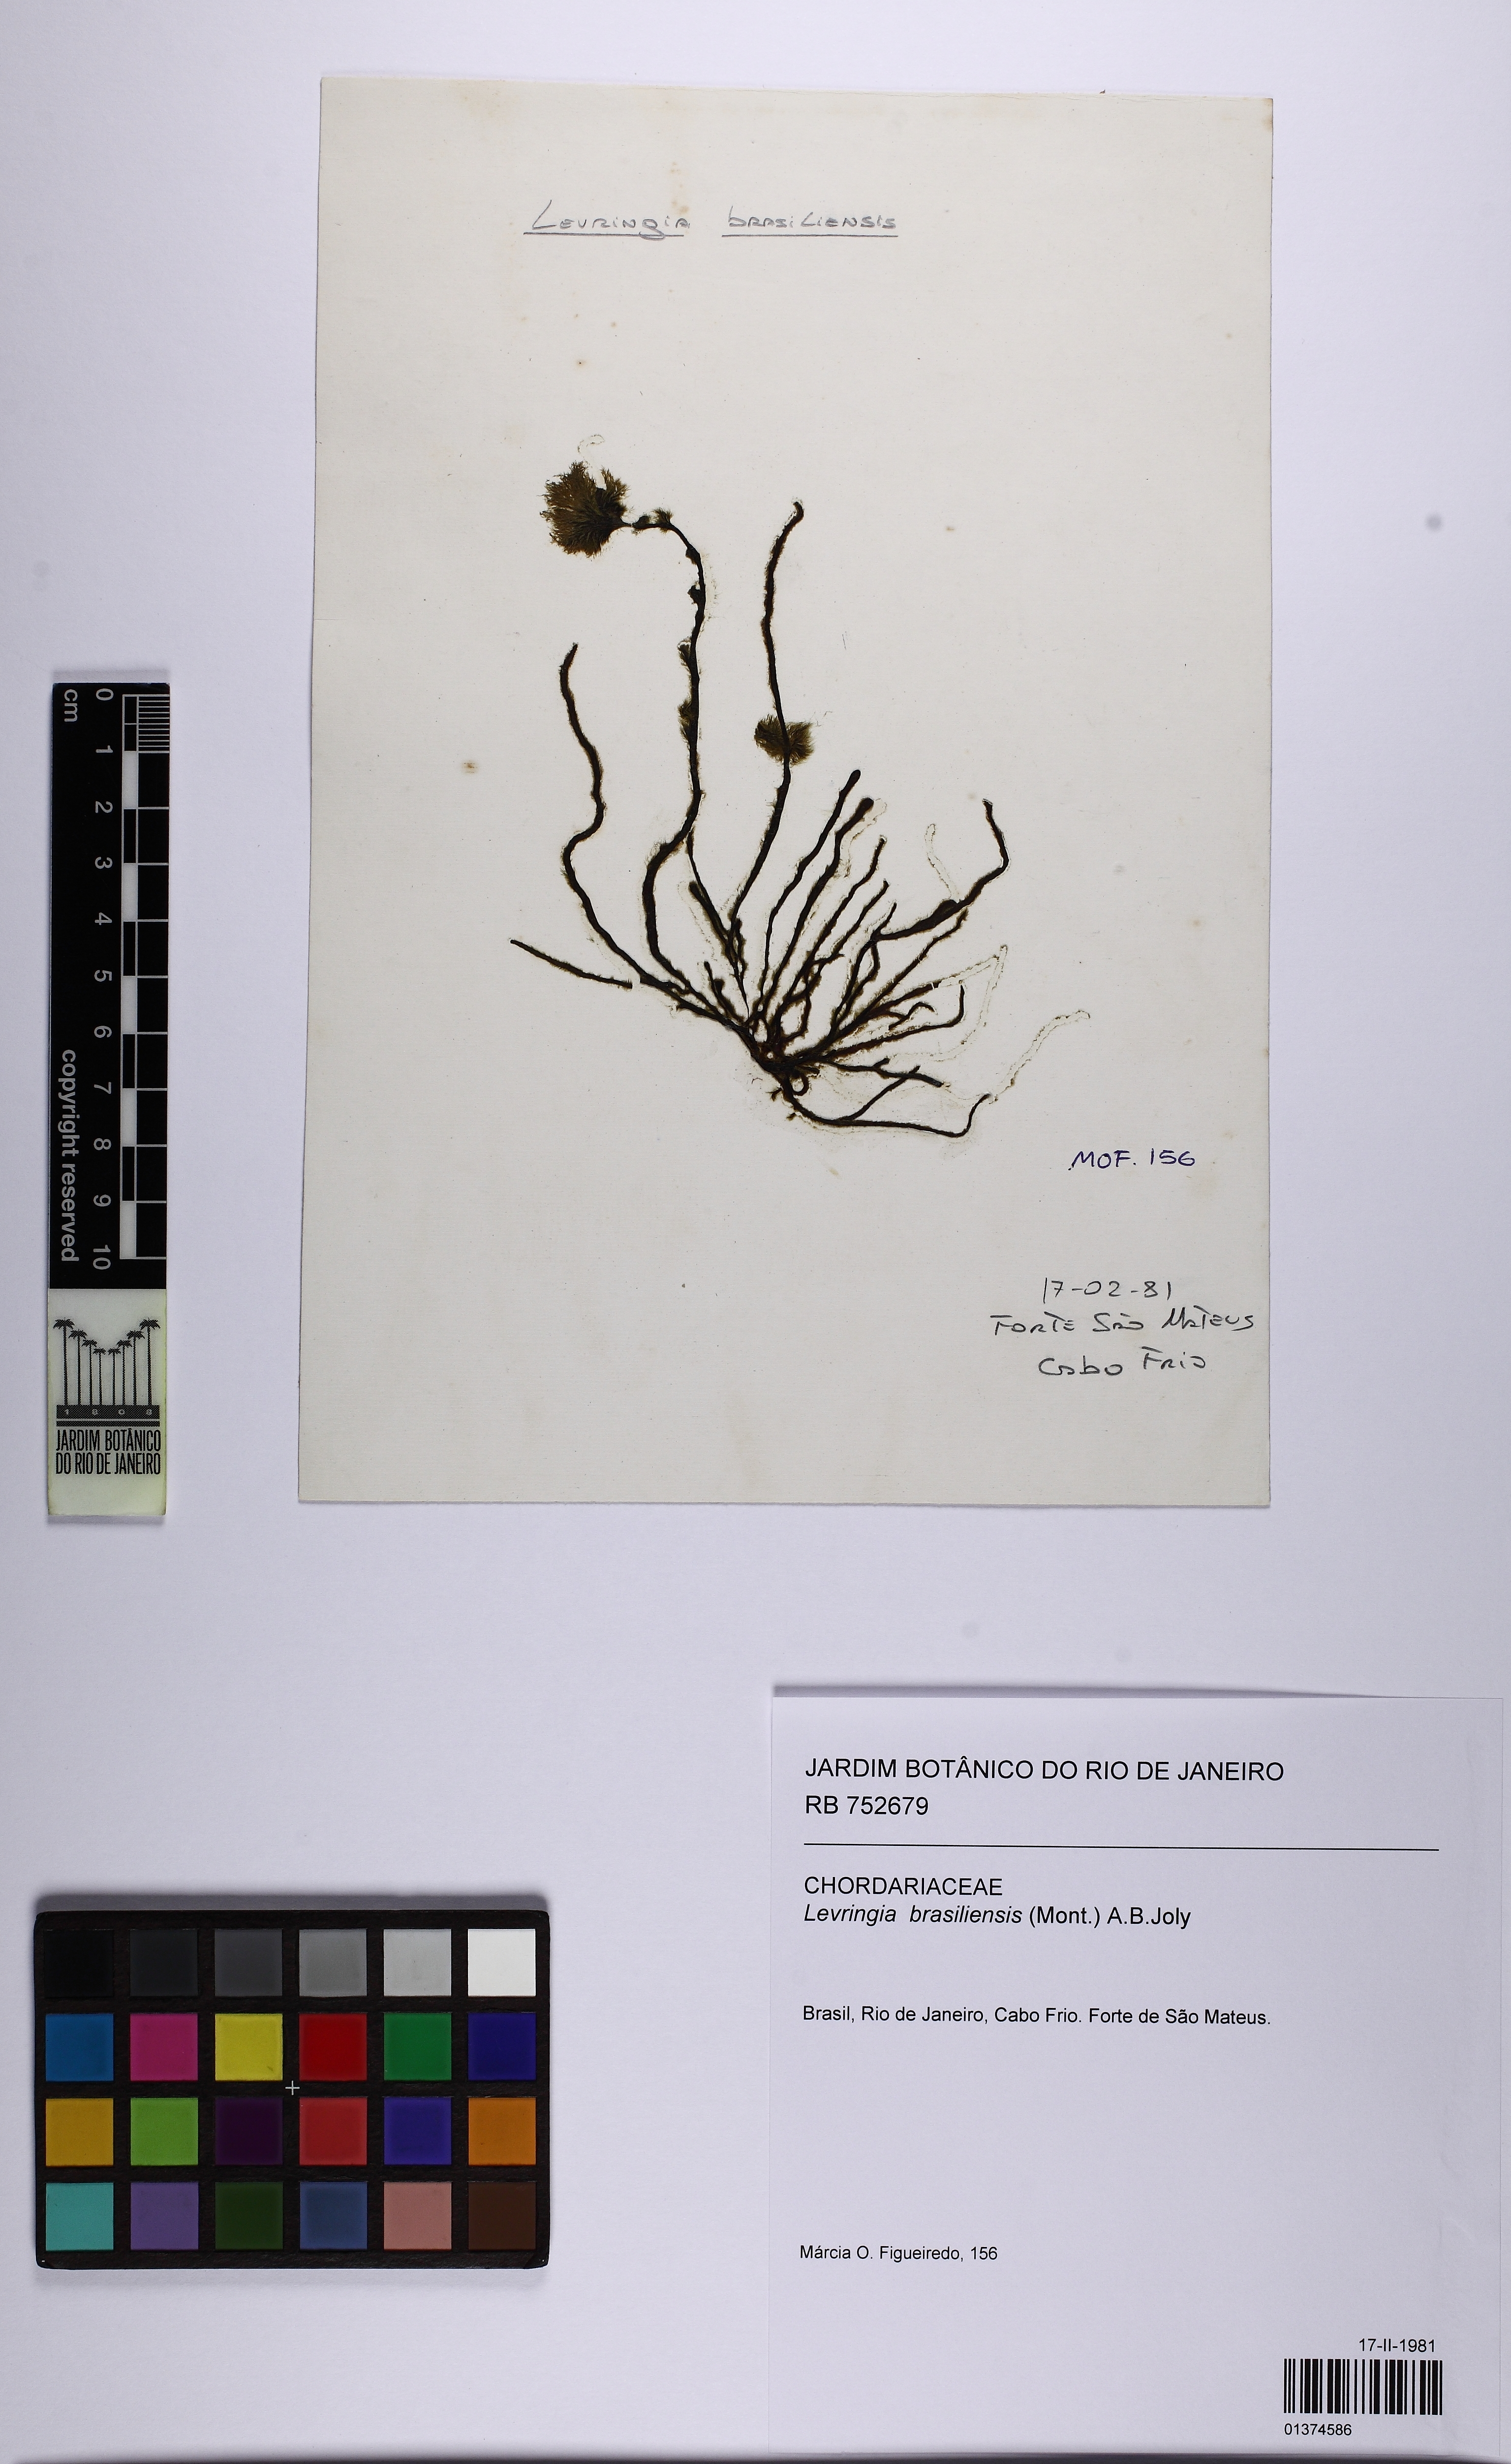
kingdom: Chromista
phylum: Ochrophyta
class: Phaeophyceae
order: Ectocarpales
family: Chordariaceae
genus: Levringia
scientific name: Levringia brasiliensis
